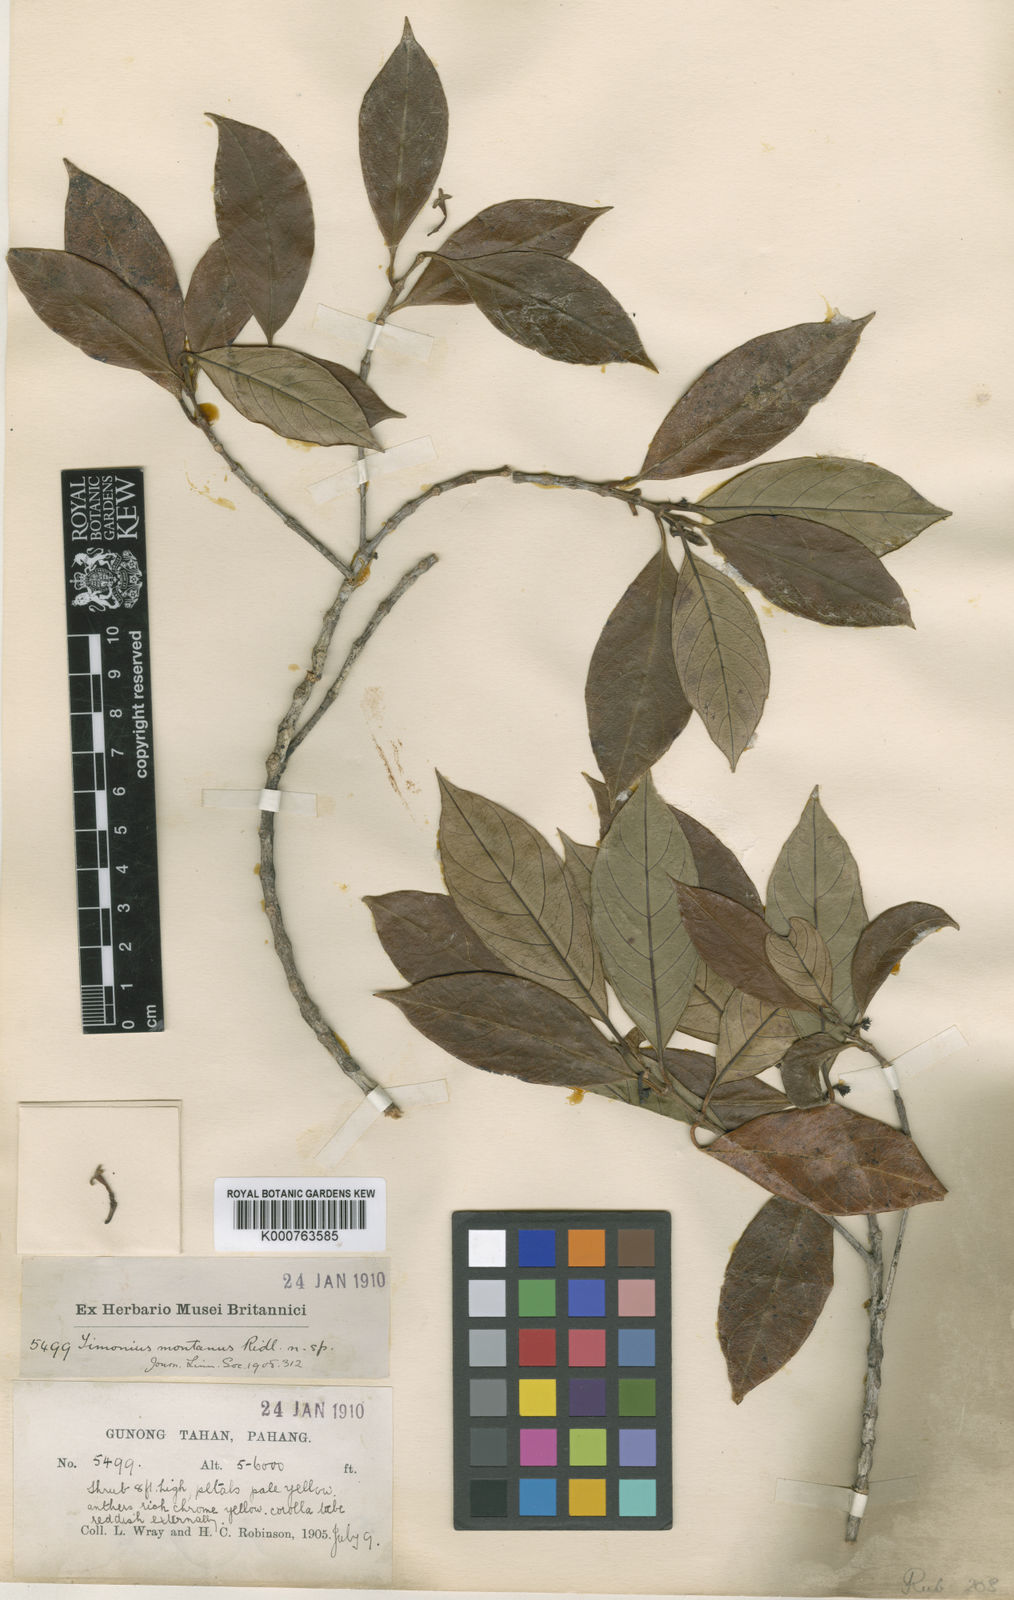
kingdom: Plantae
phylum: Tracheophyta
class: Magnoliopsida
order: Gentianales
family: Rubiaceae
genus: Timonius
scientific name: Timonius montanus
